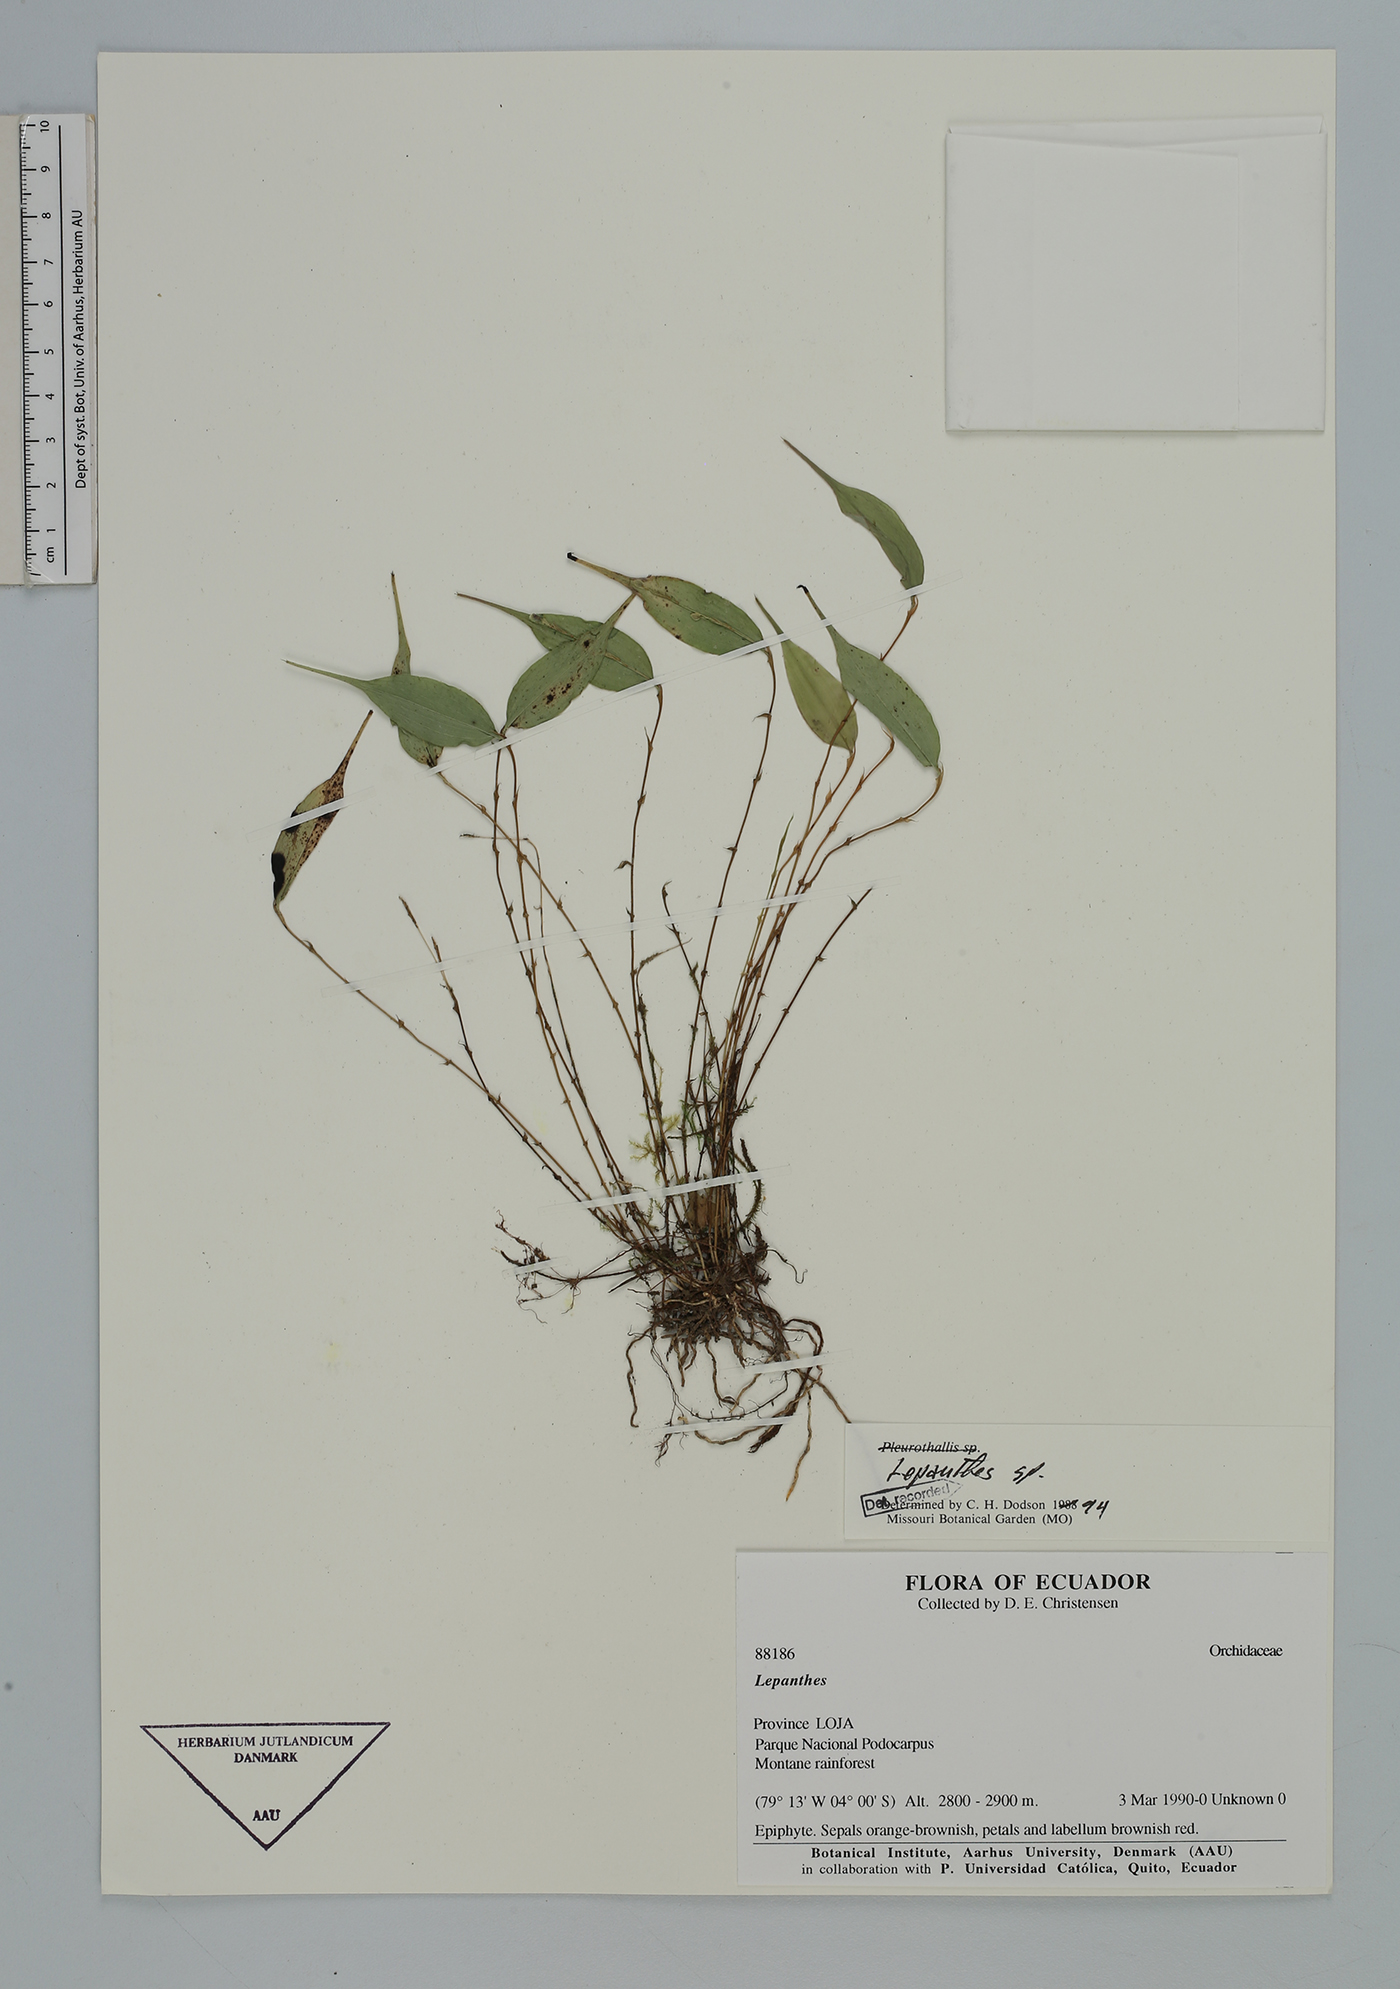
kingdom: Plantae
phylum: Tracheophyta
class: Liliopsida
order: Asparagales
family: Orchidaceae
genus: Lepanthes
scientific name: Lepanthes
